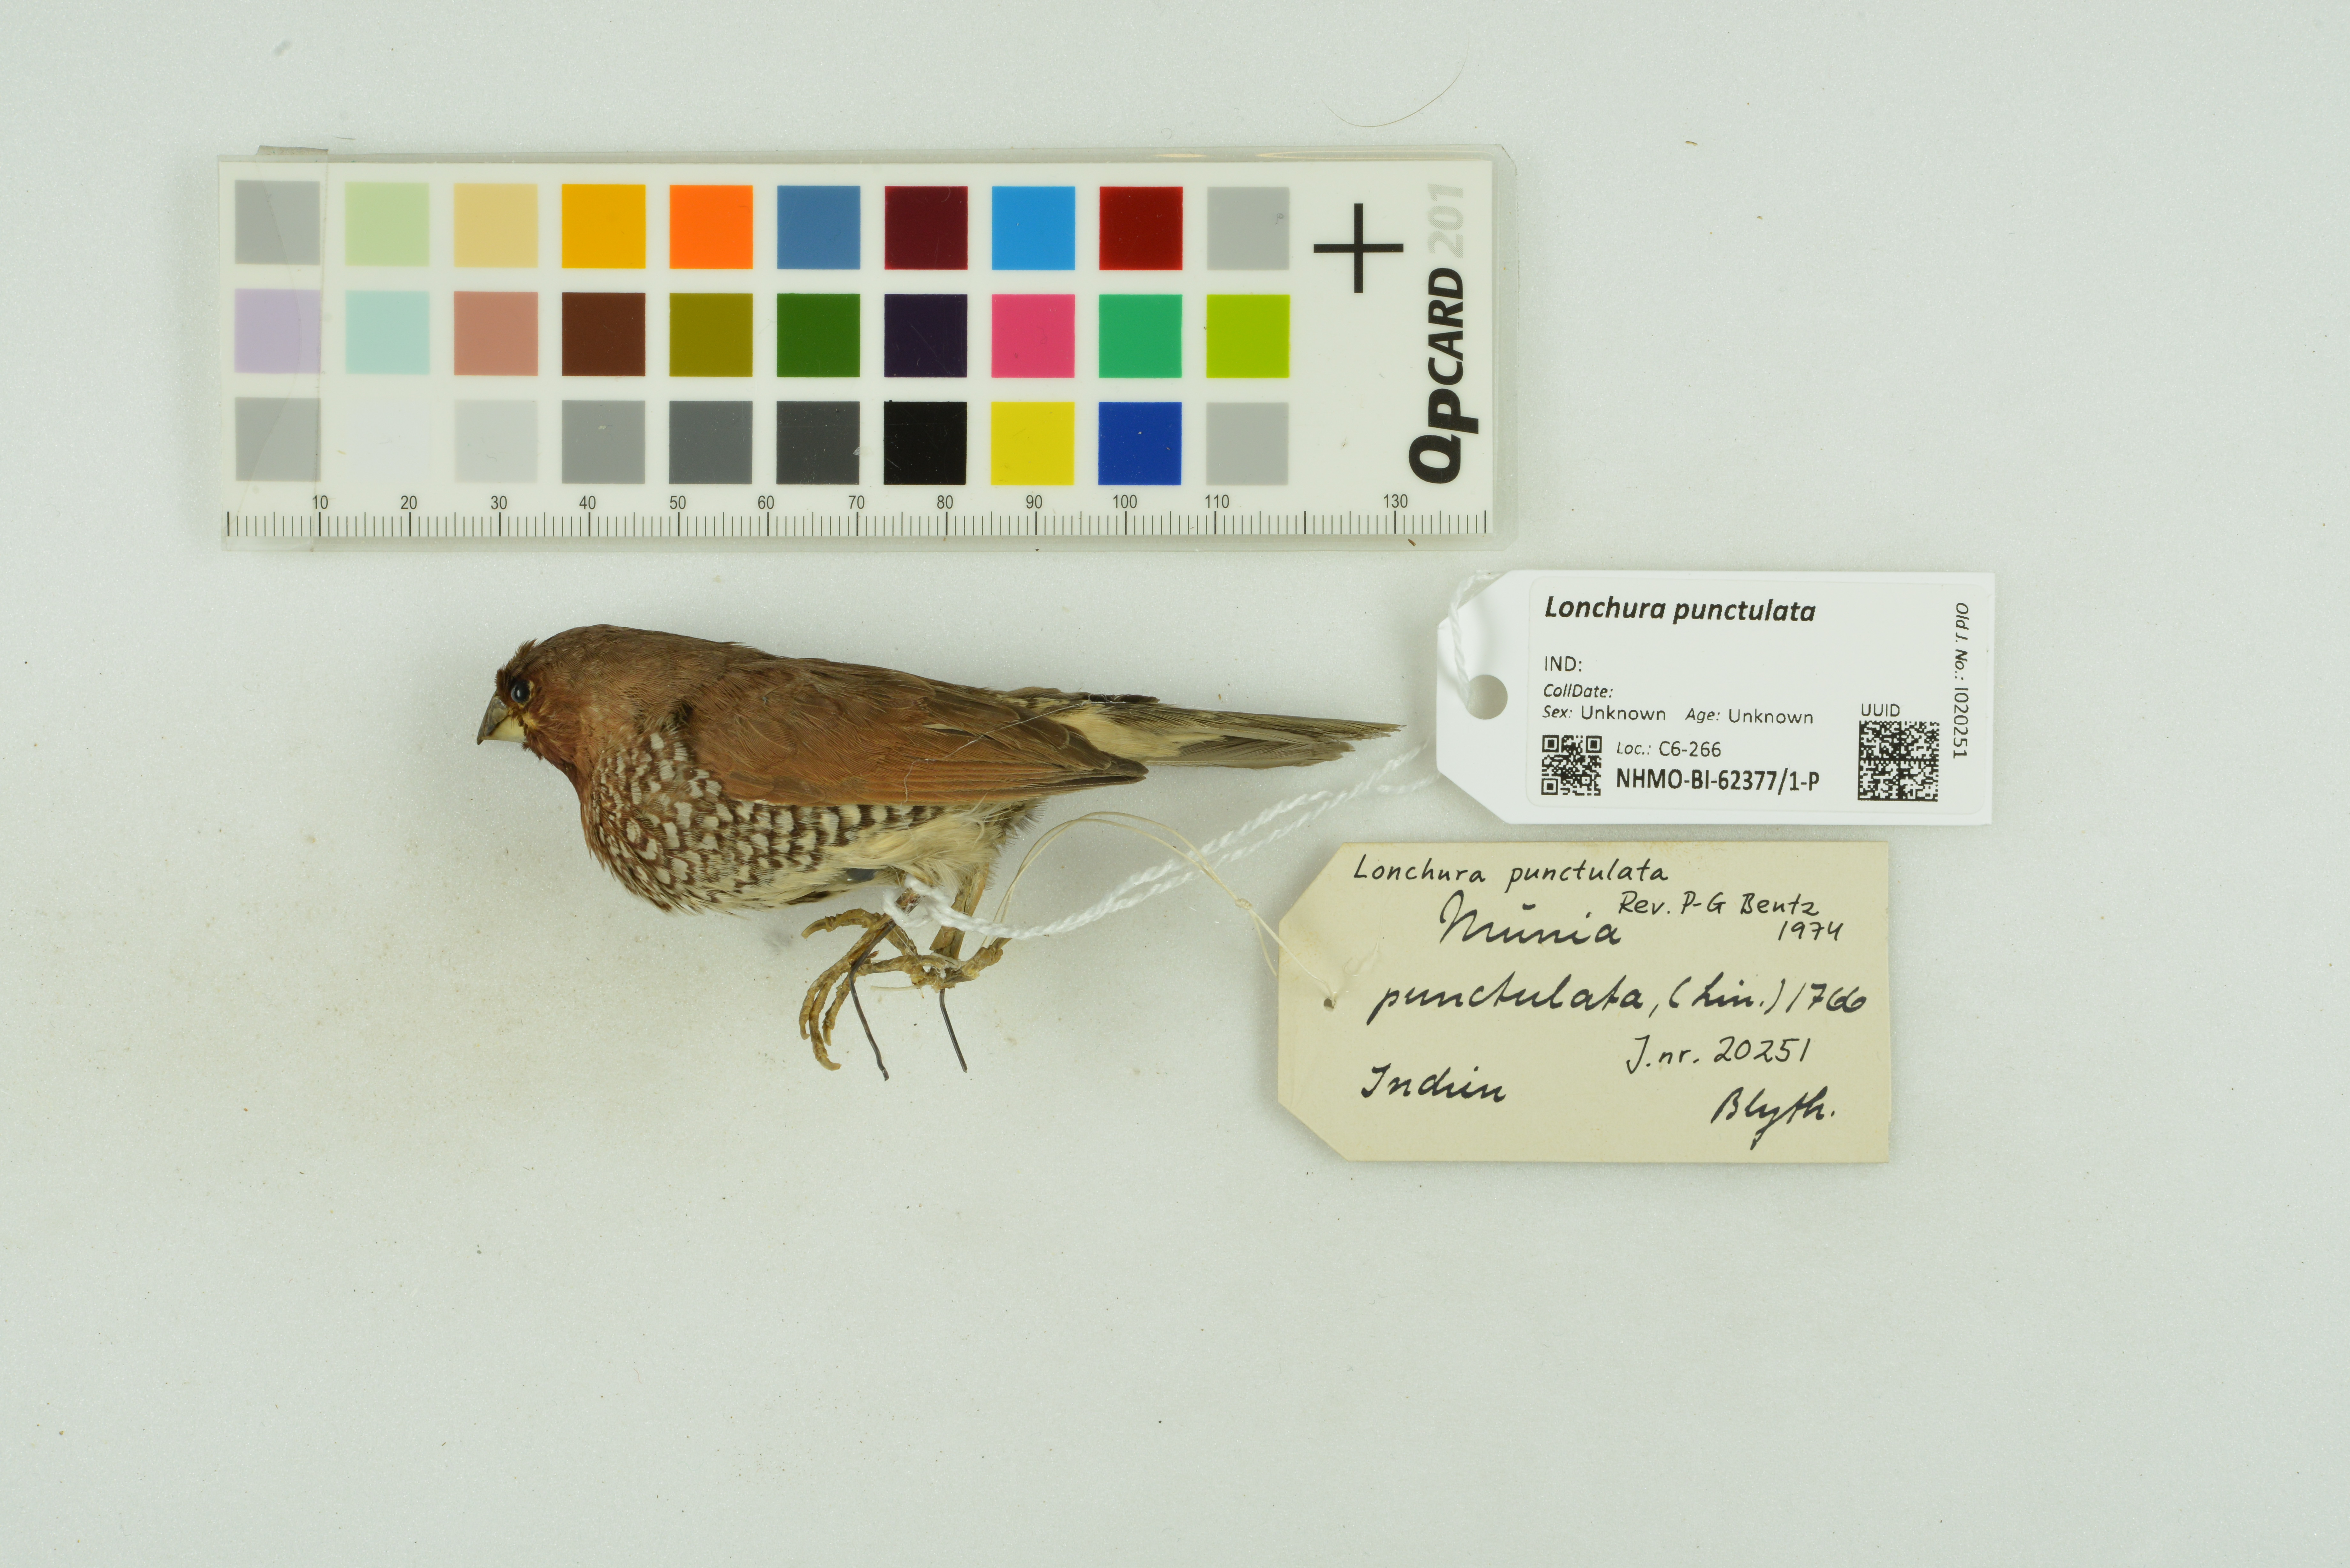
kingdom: Animalia
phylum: Chordata
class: Aves
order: Passeriformes
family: Estrildidae
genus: Lonchura
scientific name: Lonchura punctulata
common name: Scaly-breasted munia
